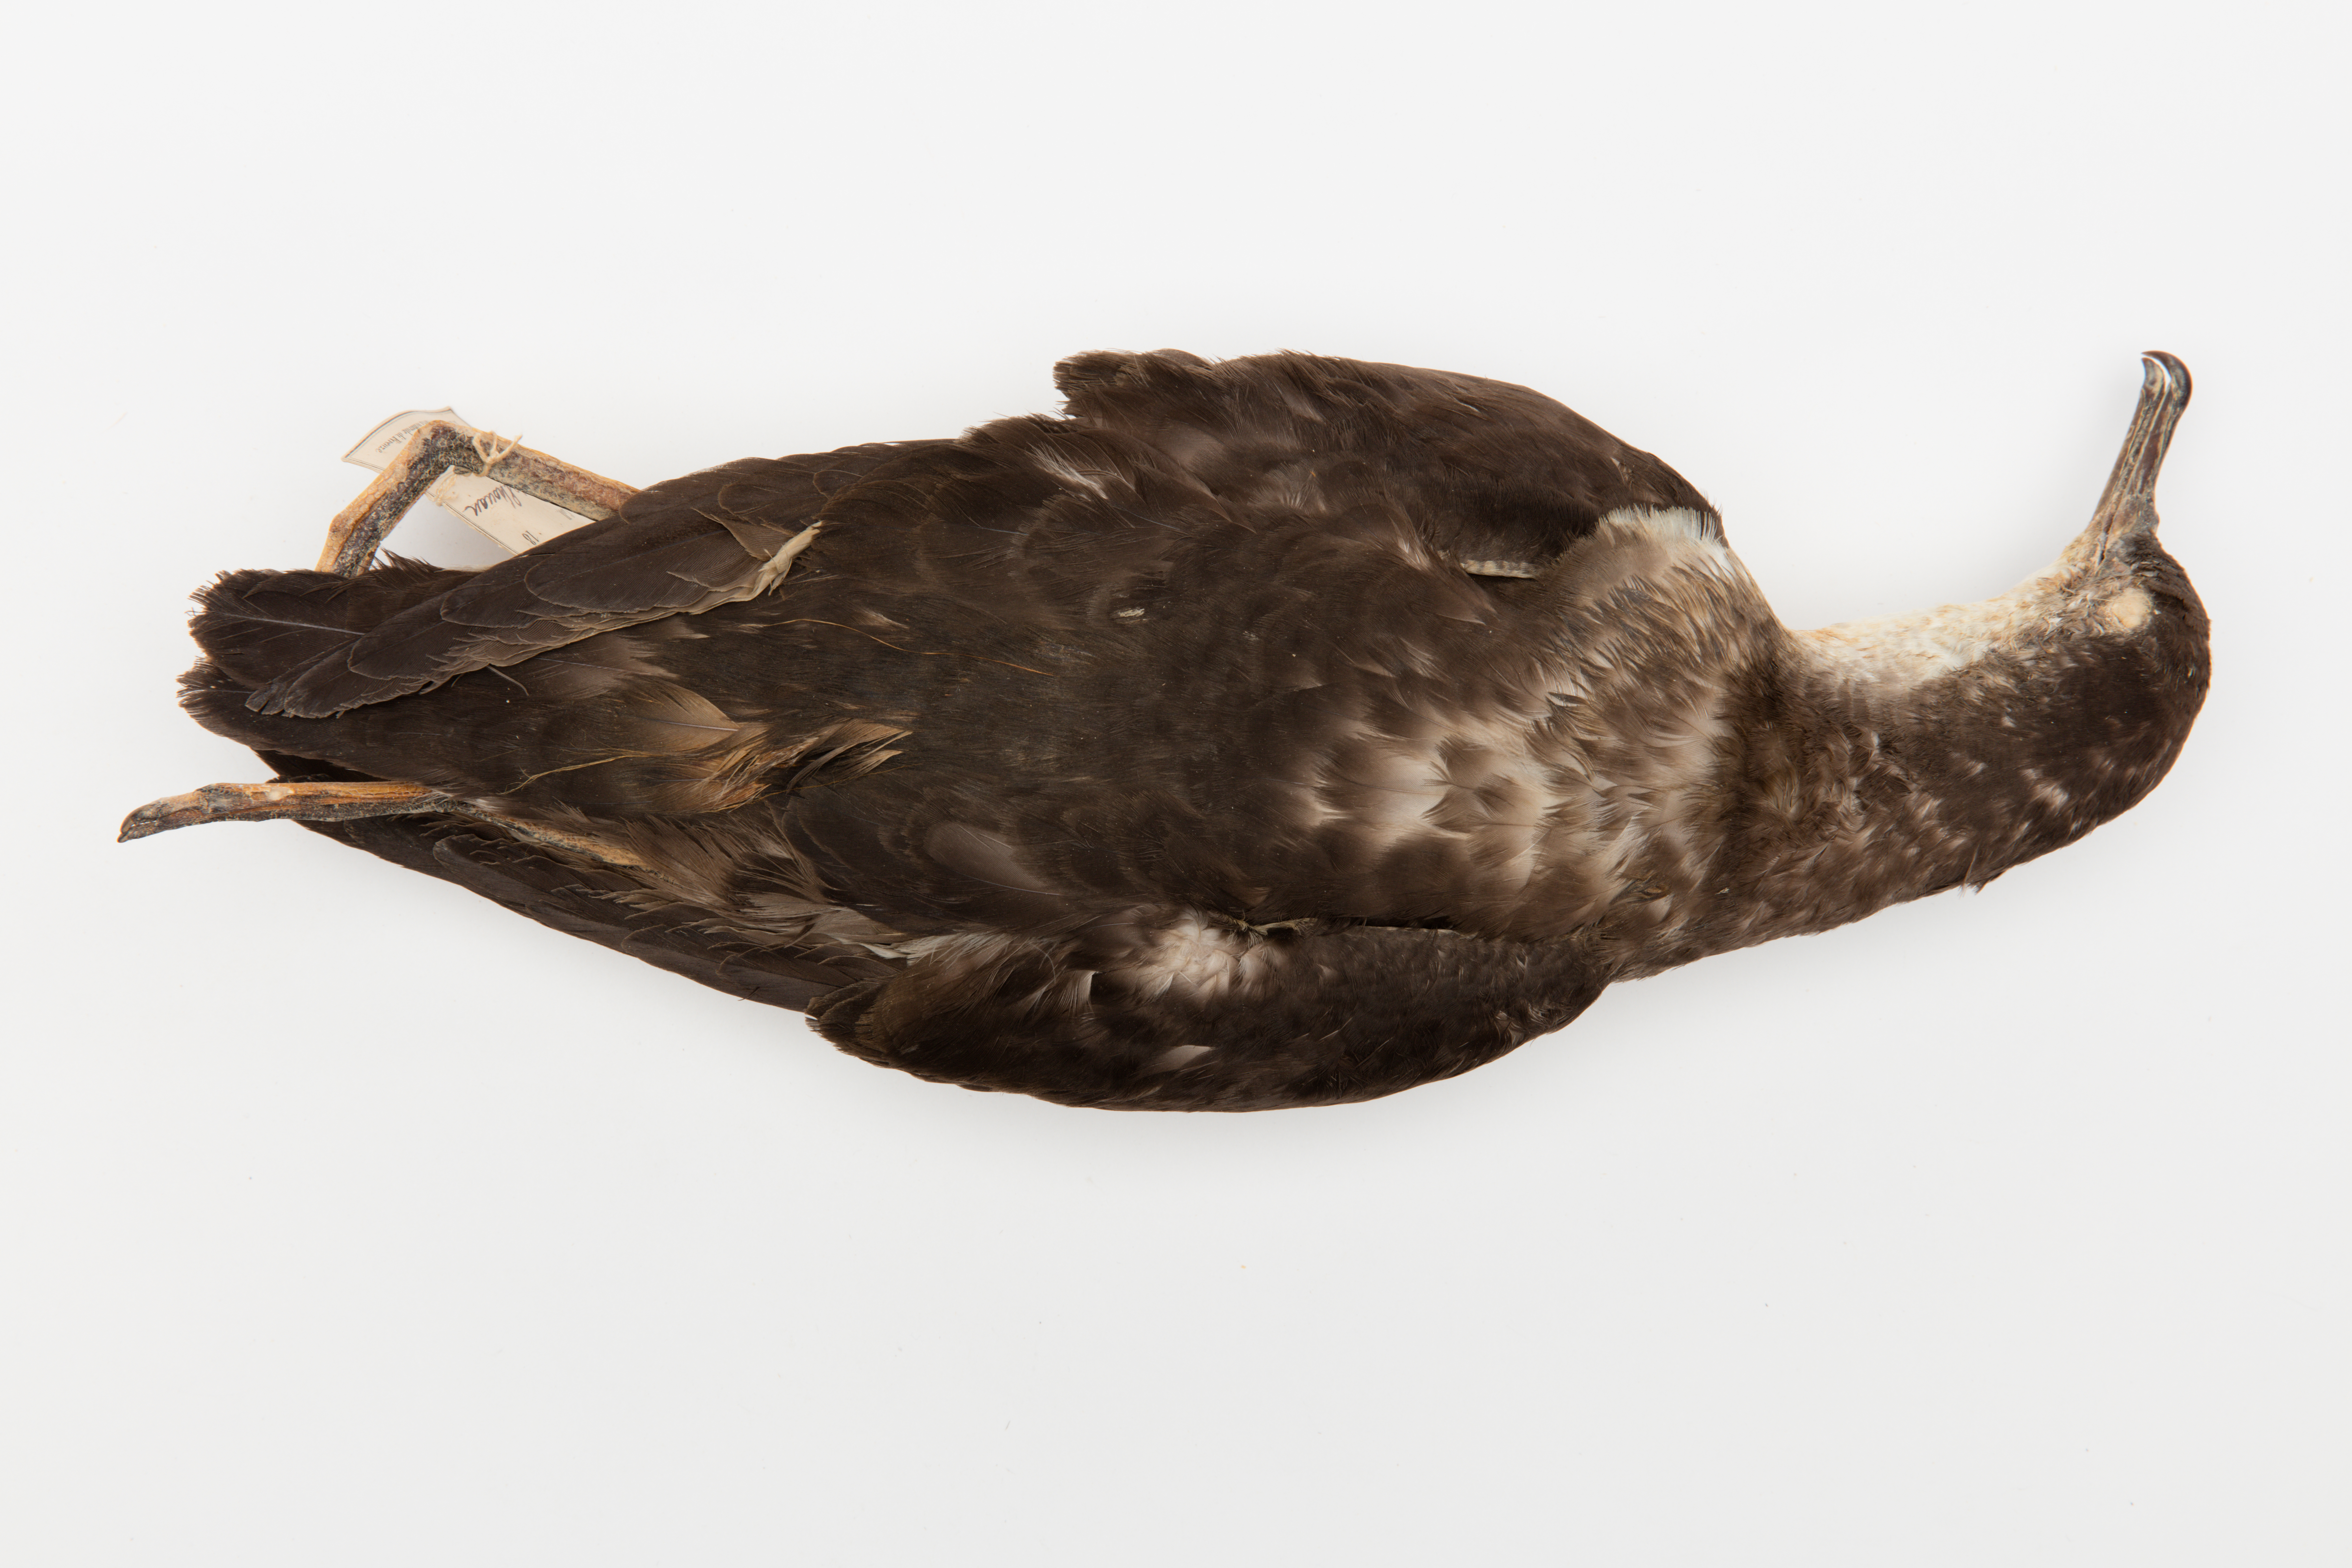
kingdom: Animalia
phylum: Chordata
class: Aves
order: Procellariiformes
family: Procellariidae
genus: Puffinus
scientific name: Puffinus yelkouan
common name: Yelkouan shearwater
